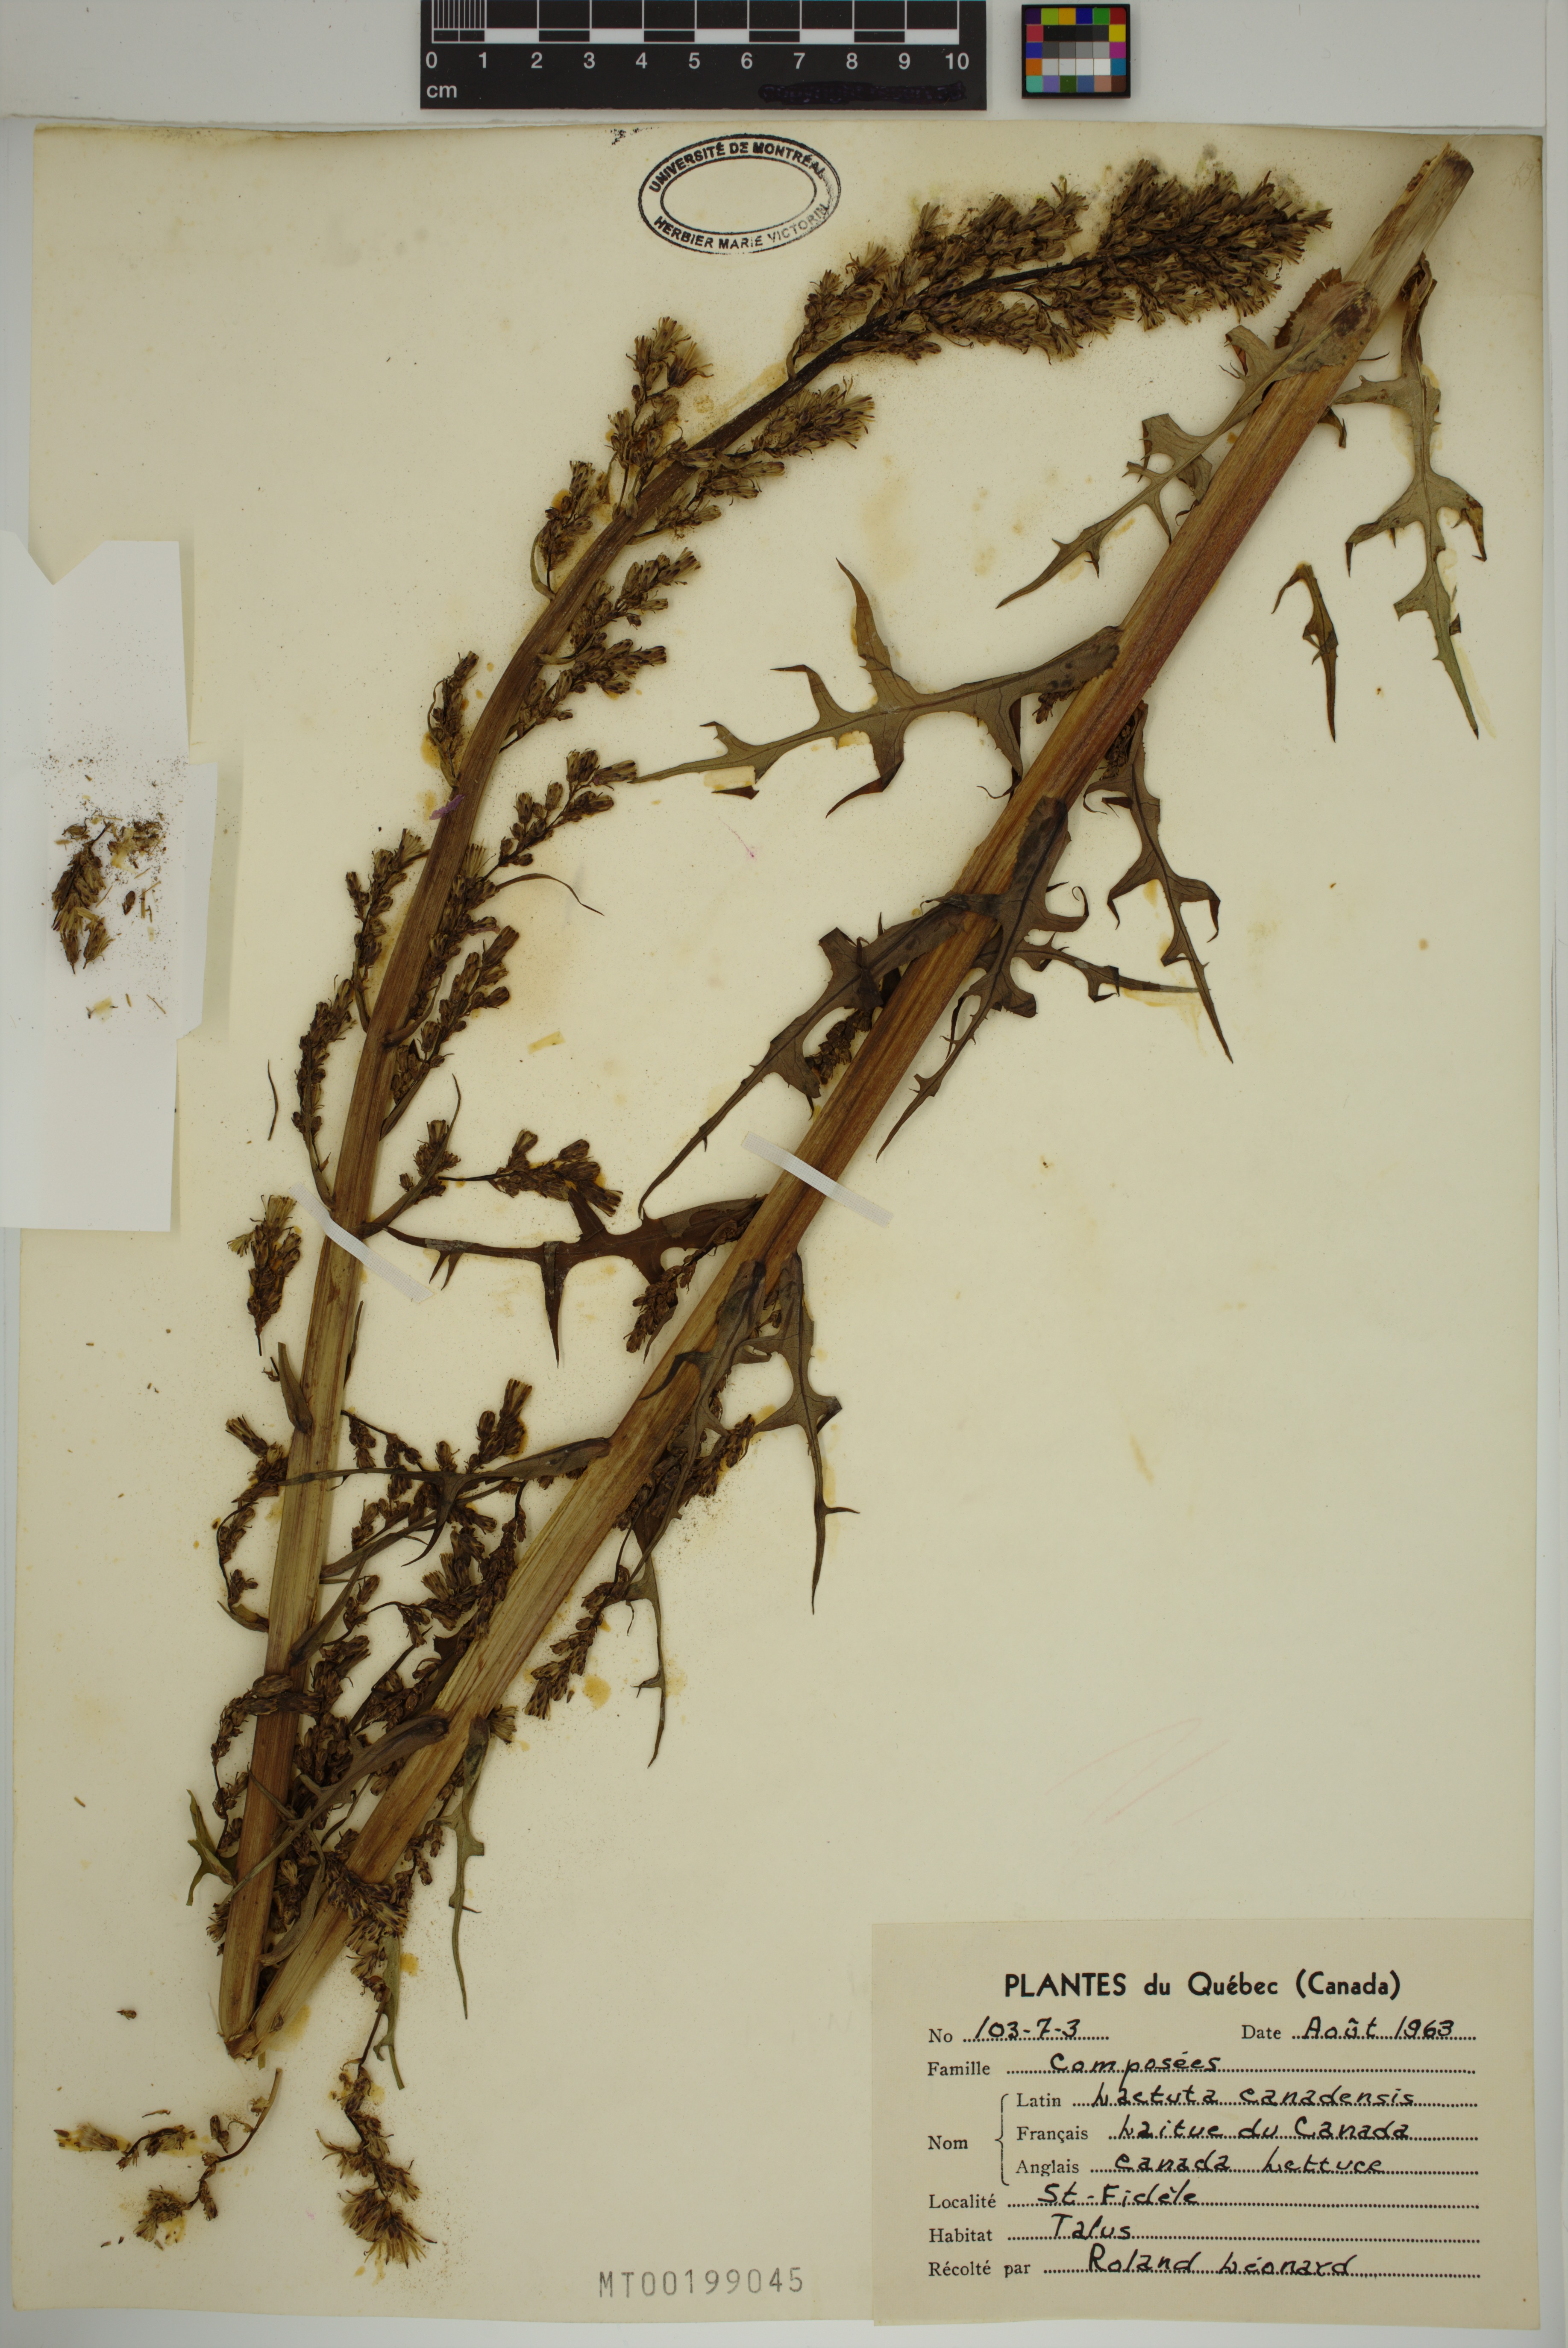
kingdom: Plantae
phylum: Tracheophyta
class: Magnoliopsida
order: Asterales
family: Asteraceae
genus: Lactuca
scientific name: Lactuca canadensis
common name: Canada lettuce
